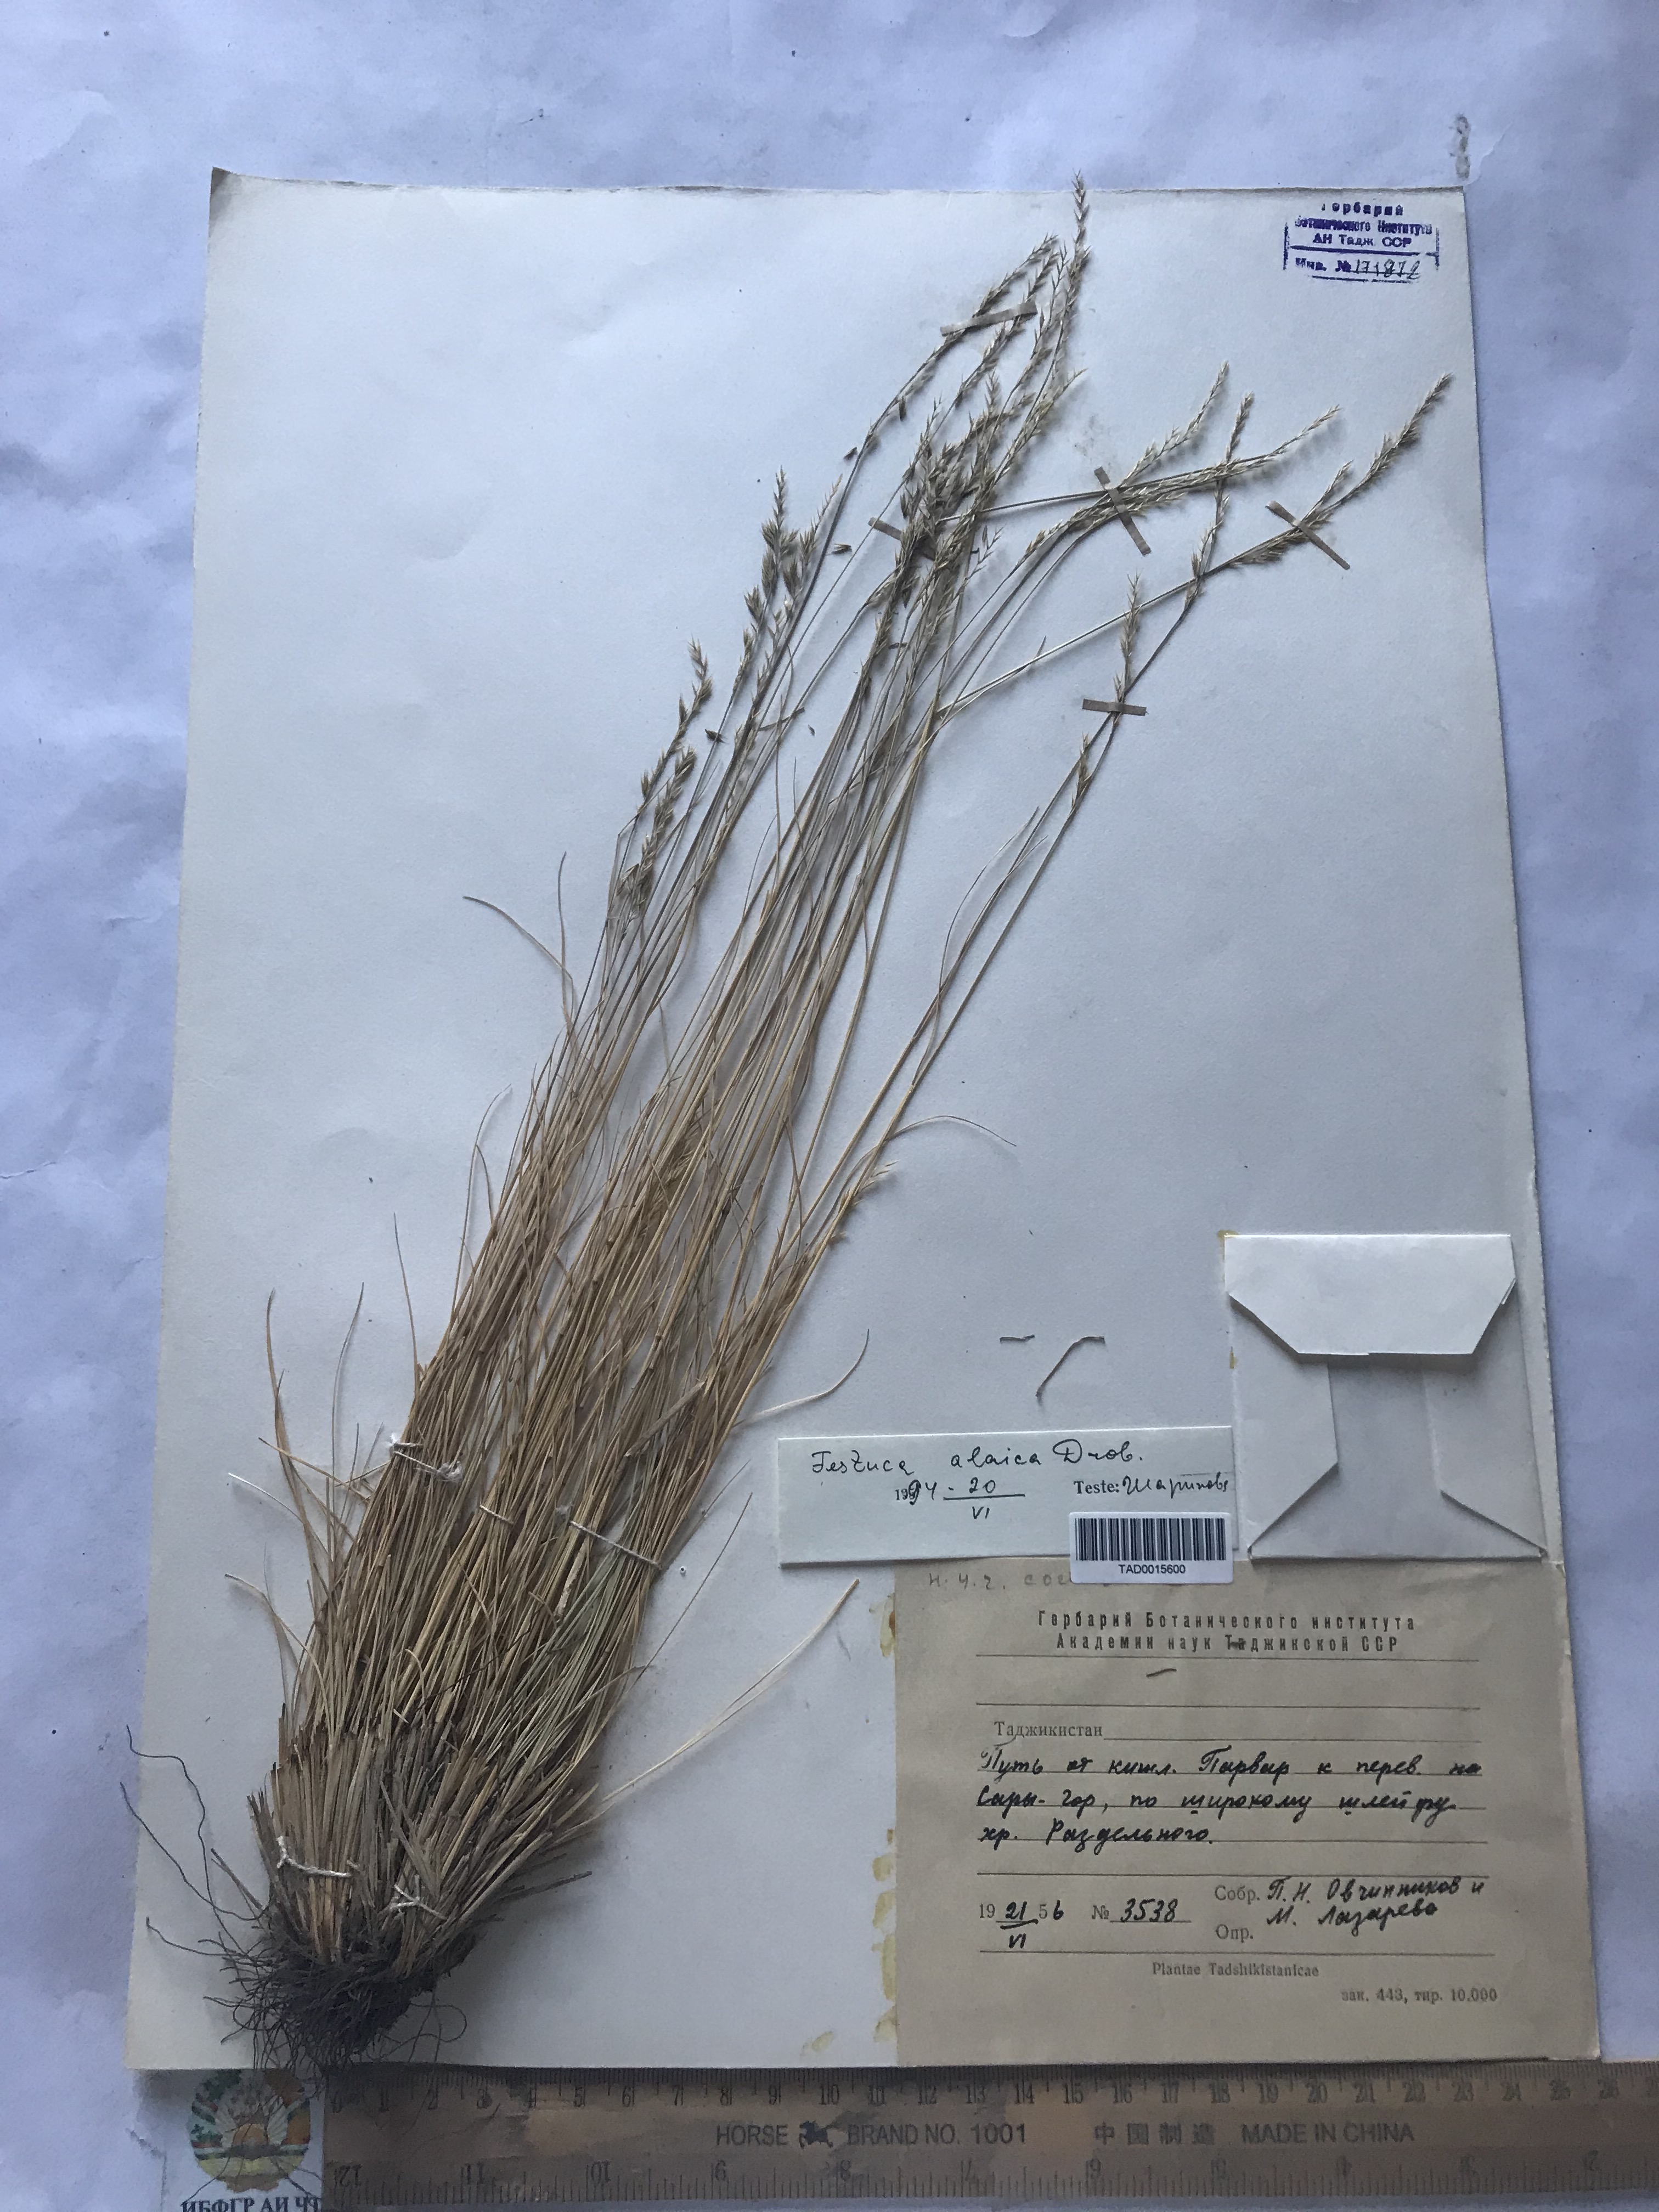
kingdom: Plantae
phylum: Tracheophyta
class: Liliopsida
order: Poales
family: Poaceae
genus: Festuca
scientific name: Festuca alaica
